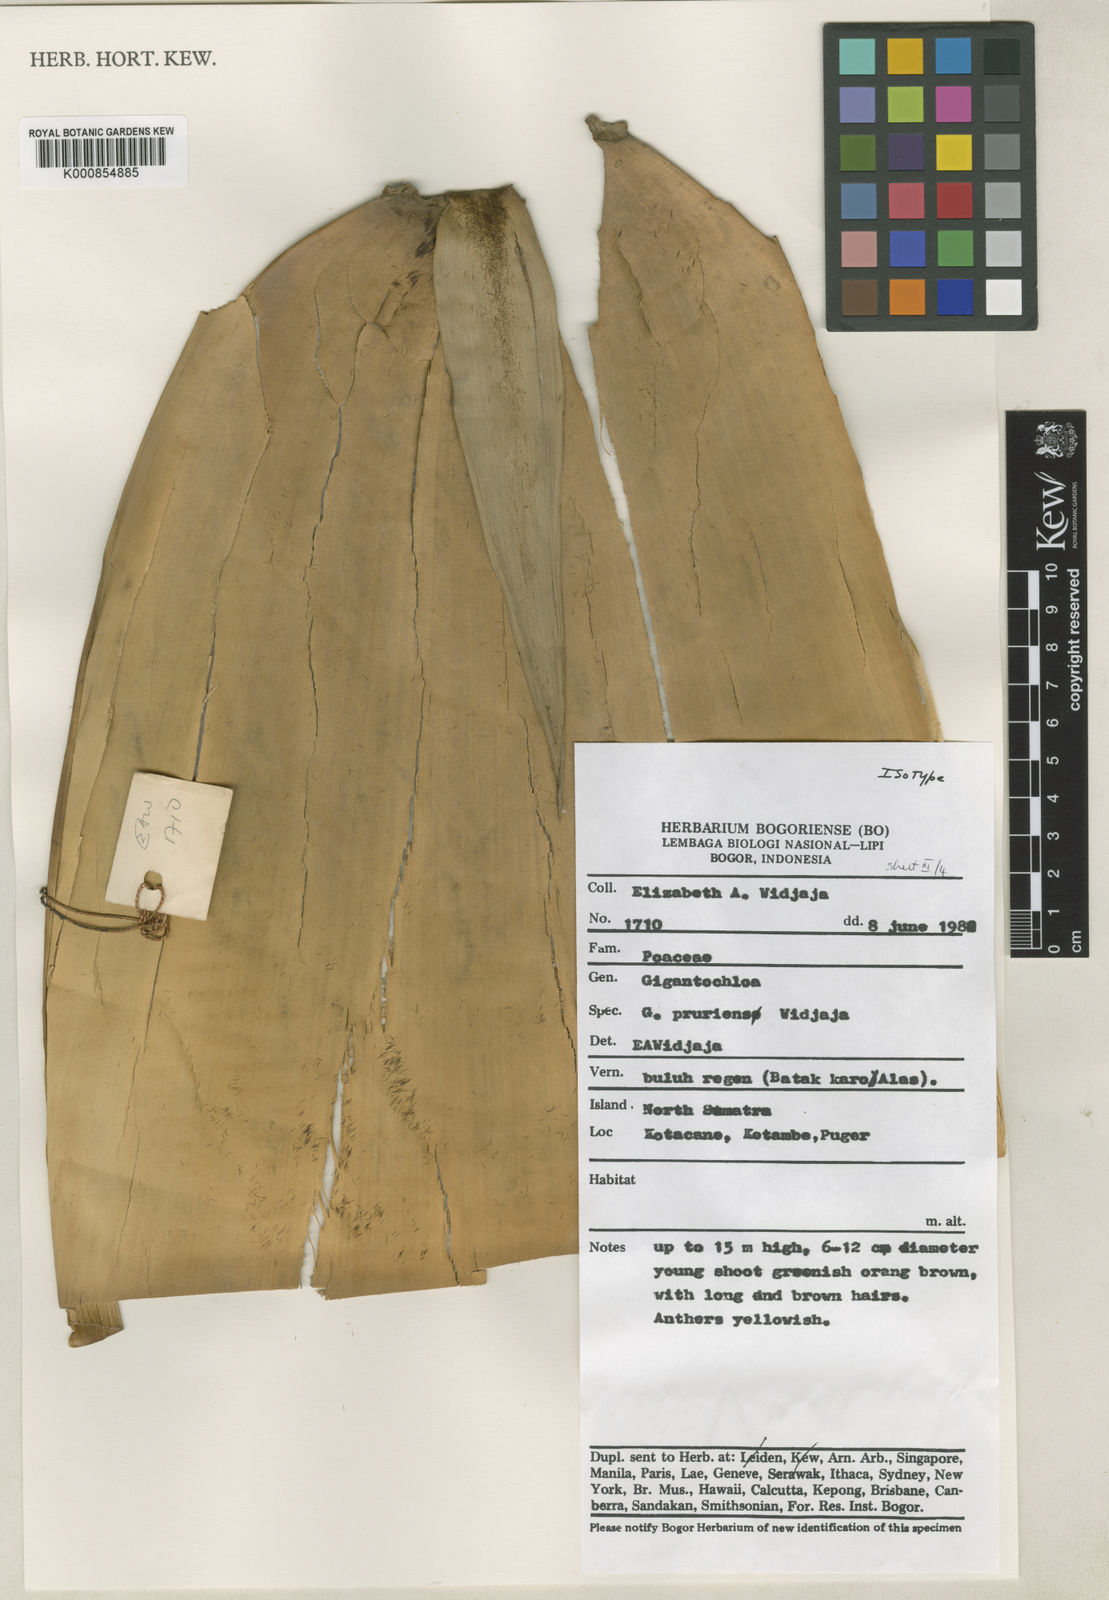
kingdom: Plantae
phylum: Tracheophyta
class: Liliopsida
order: Poales
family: Poaceae
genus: Gigantochloa
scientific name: Gigantochloa pruriens
